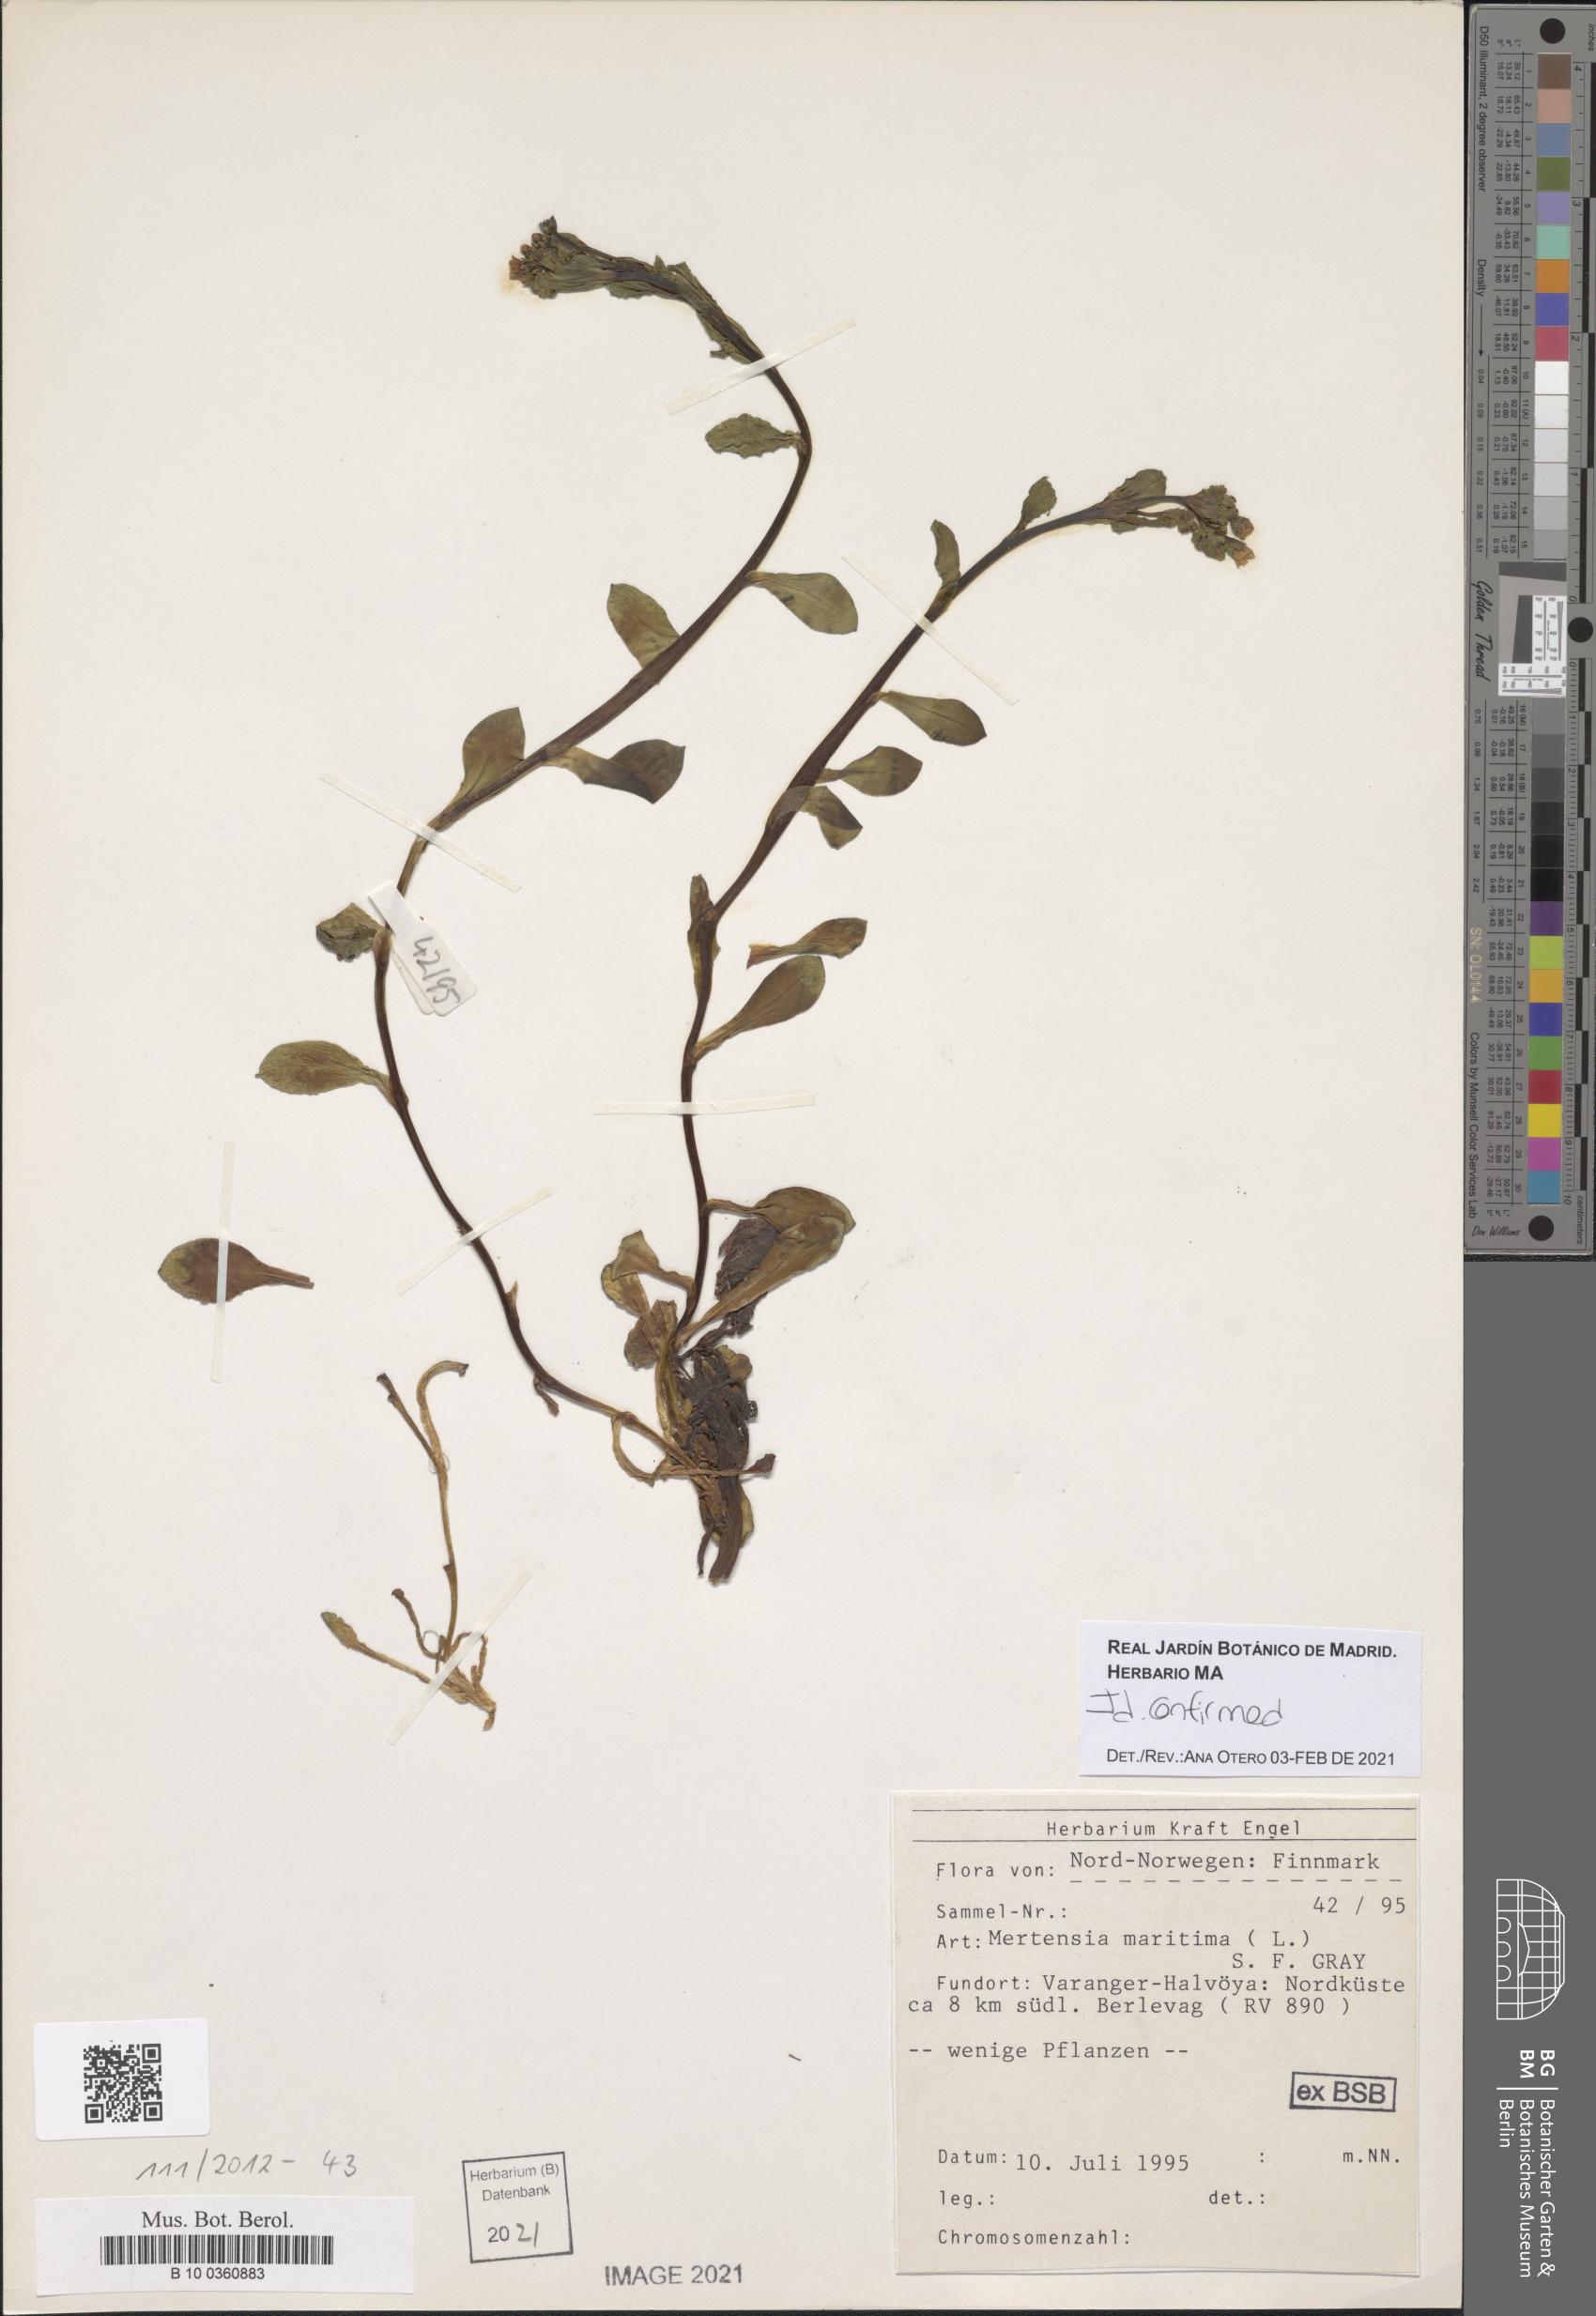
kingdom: Plantae
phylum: Tracheophyta
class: Magnoliopsida
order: Boraginales
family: Boraginaceae
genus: Mertensia
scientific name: Mertensia maritima
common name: Oysterplant
